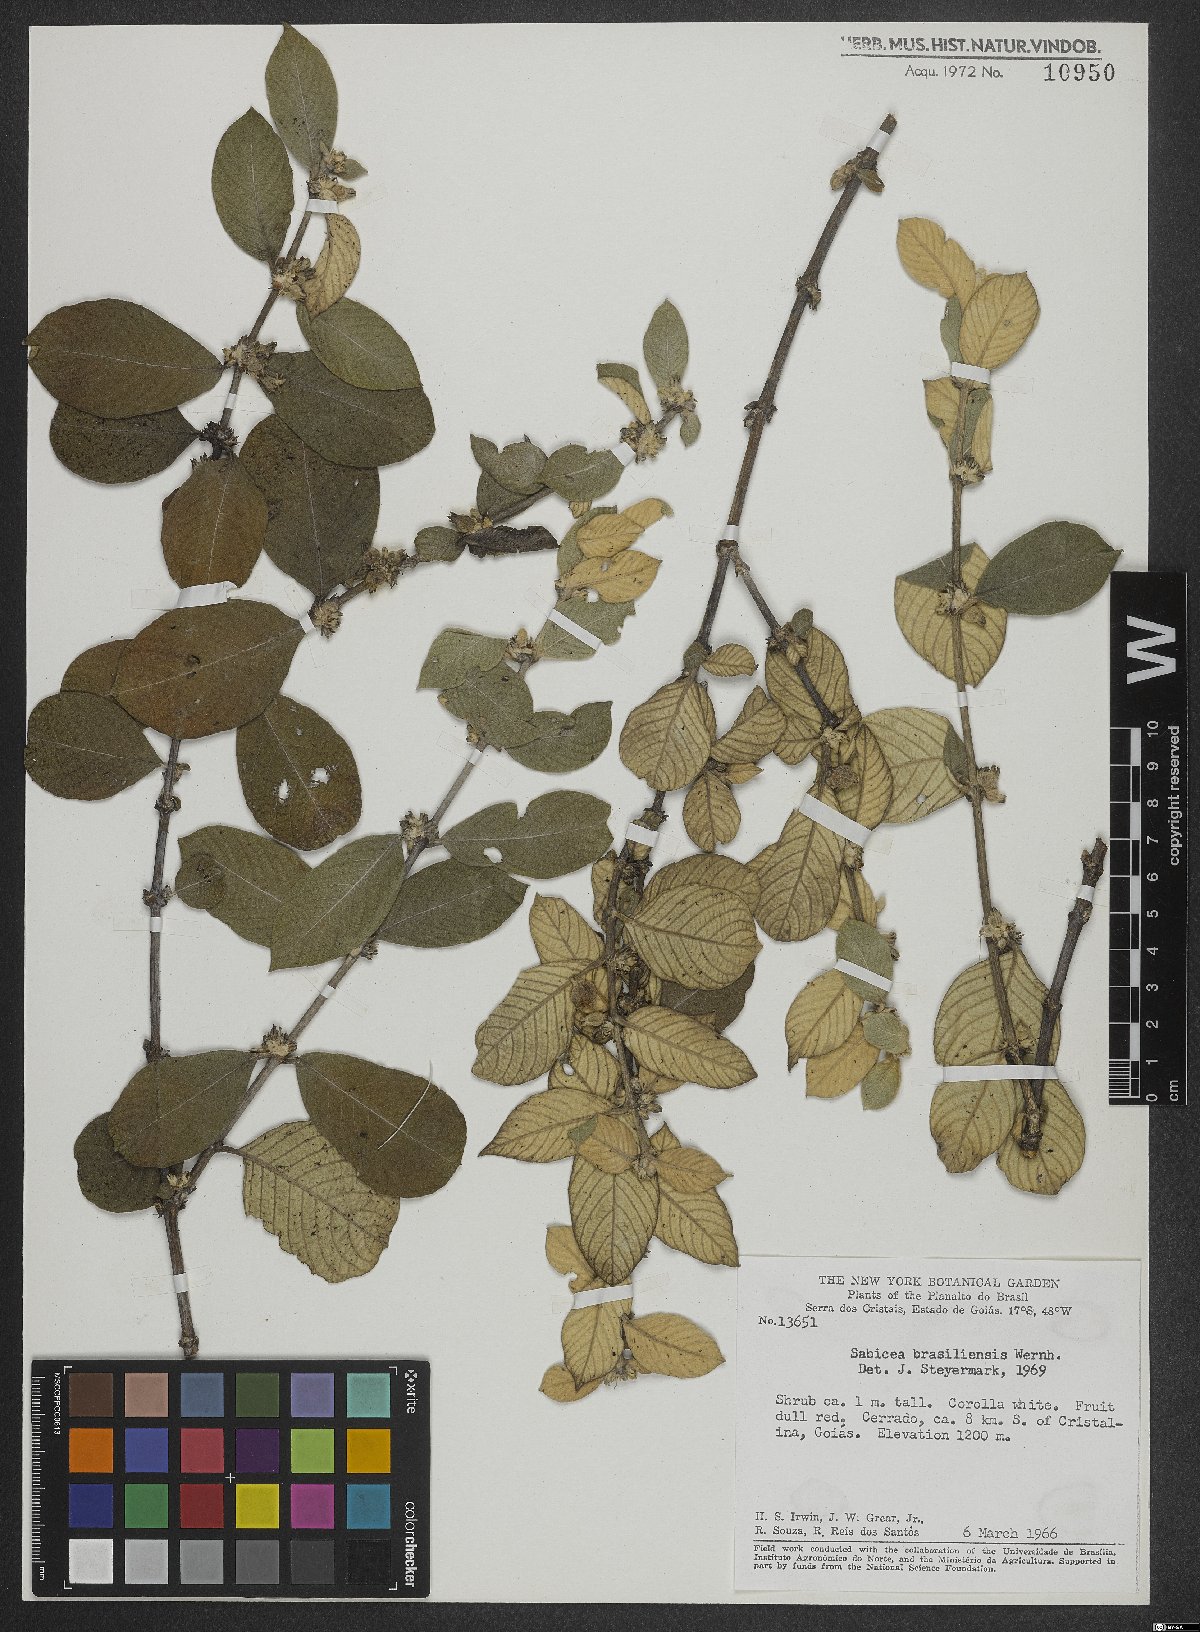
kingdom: Plantae
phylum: Tracheophyta
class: Magnoliopsida
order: Gentianales
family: Rubiaceae
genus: Sabicea
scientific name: Sabicea brasiliensis
